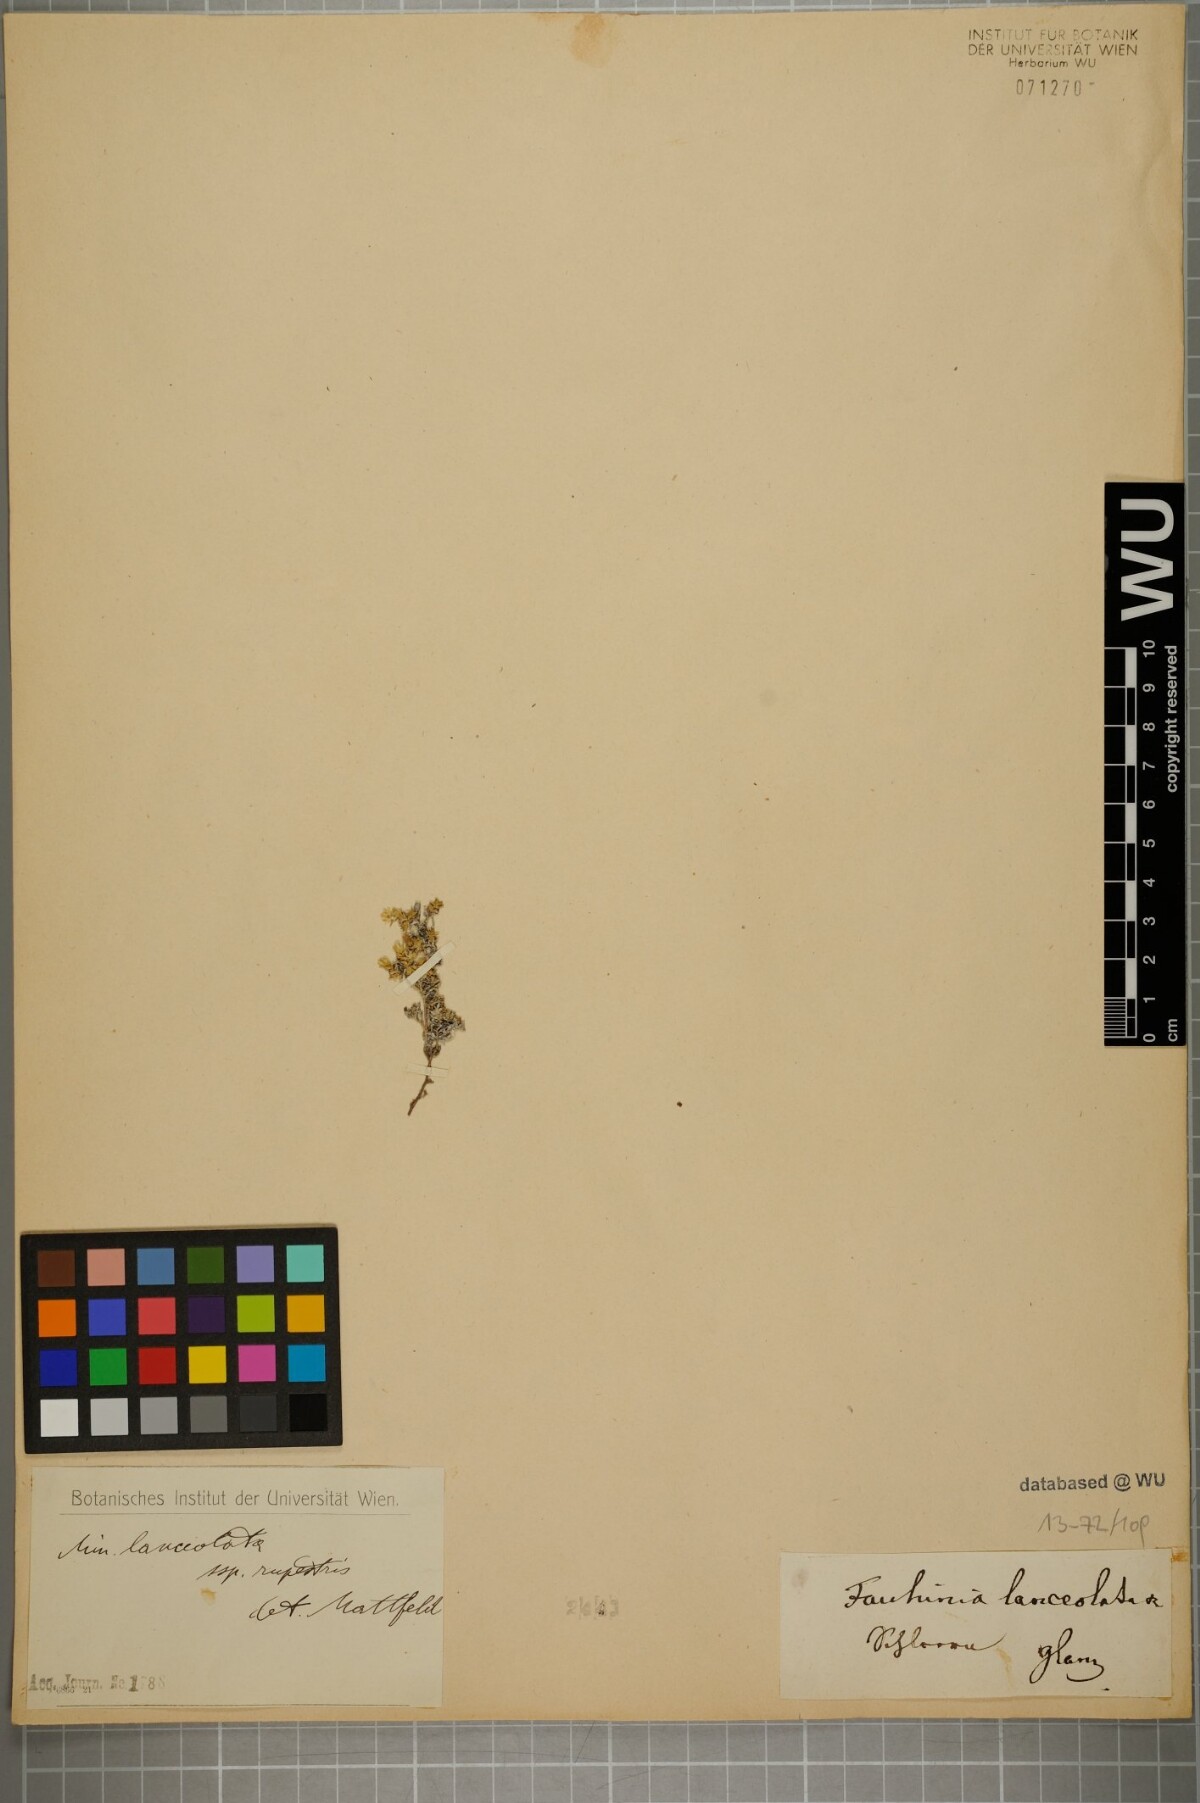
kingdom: Plantae
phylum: Tracheophyta
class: Magnoliopsida
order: Caryophyllales
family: Caryophyllaceae
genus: Facchinia
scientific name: Facchinia rupestris
